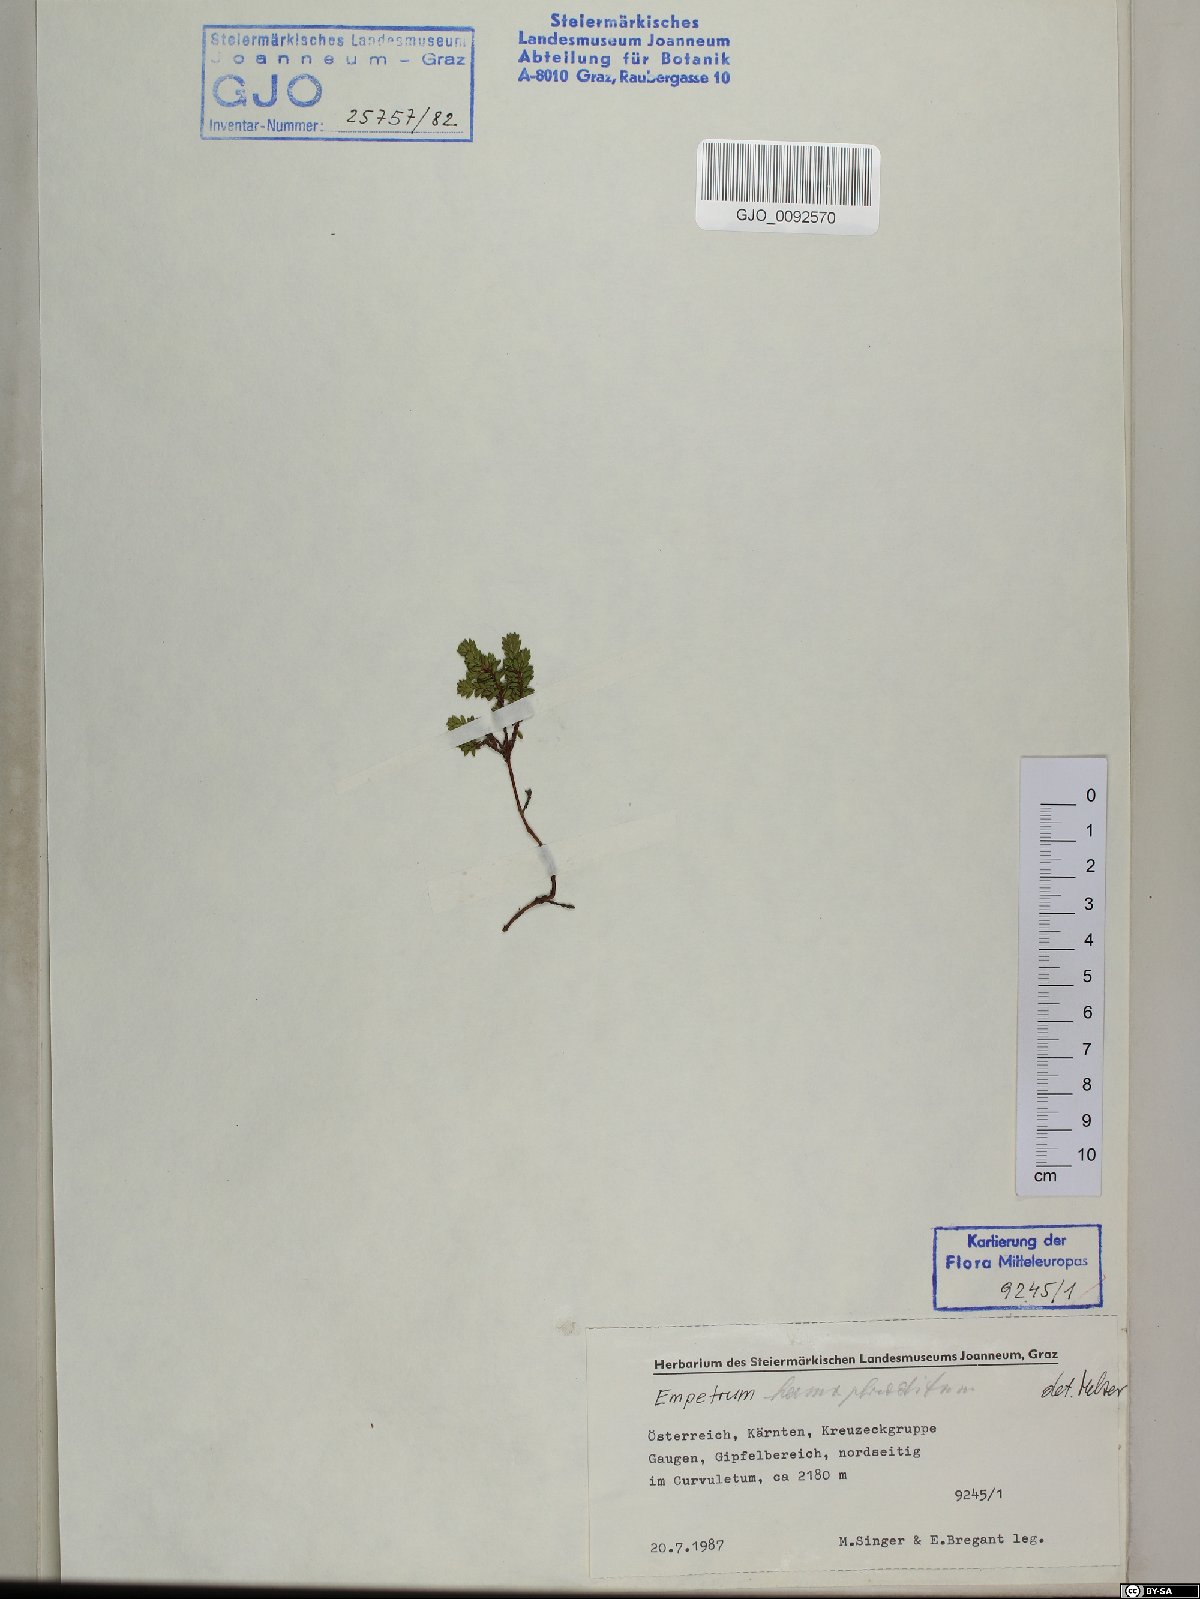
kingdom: Plantae
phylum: Tracheophyta
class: Magnoliopsida
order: Ericales
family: Ericaceae
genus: Empetrum
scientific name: Empetrum hermaphroditum
